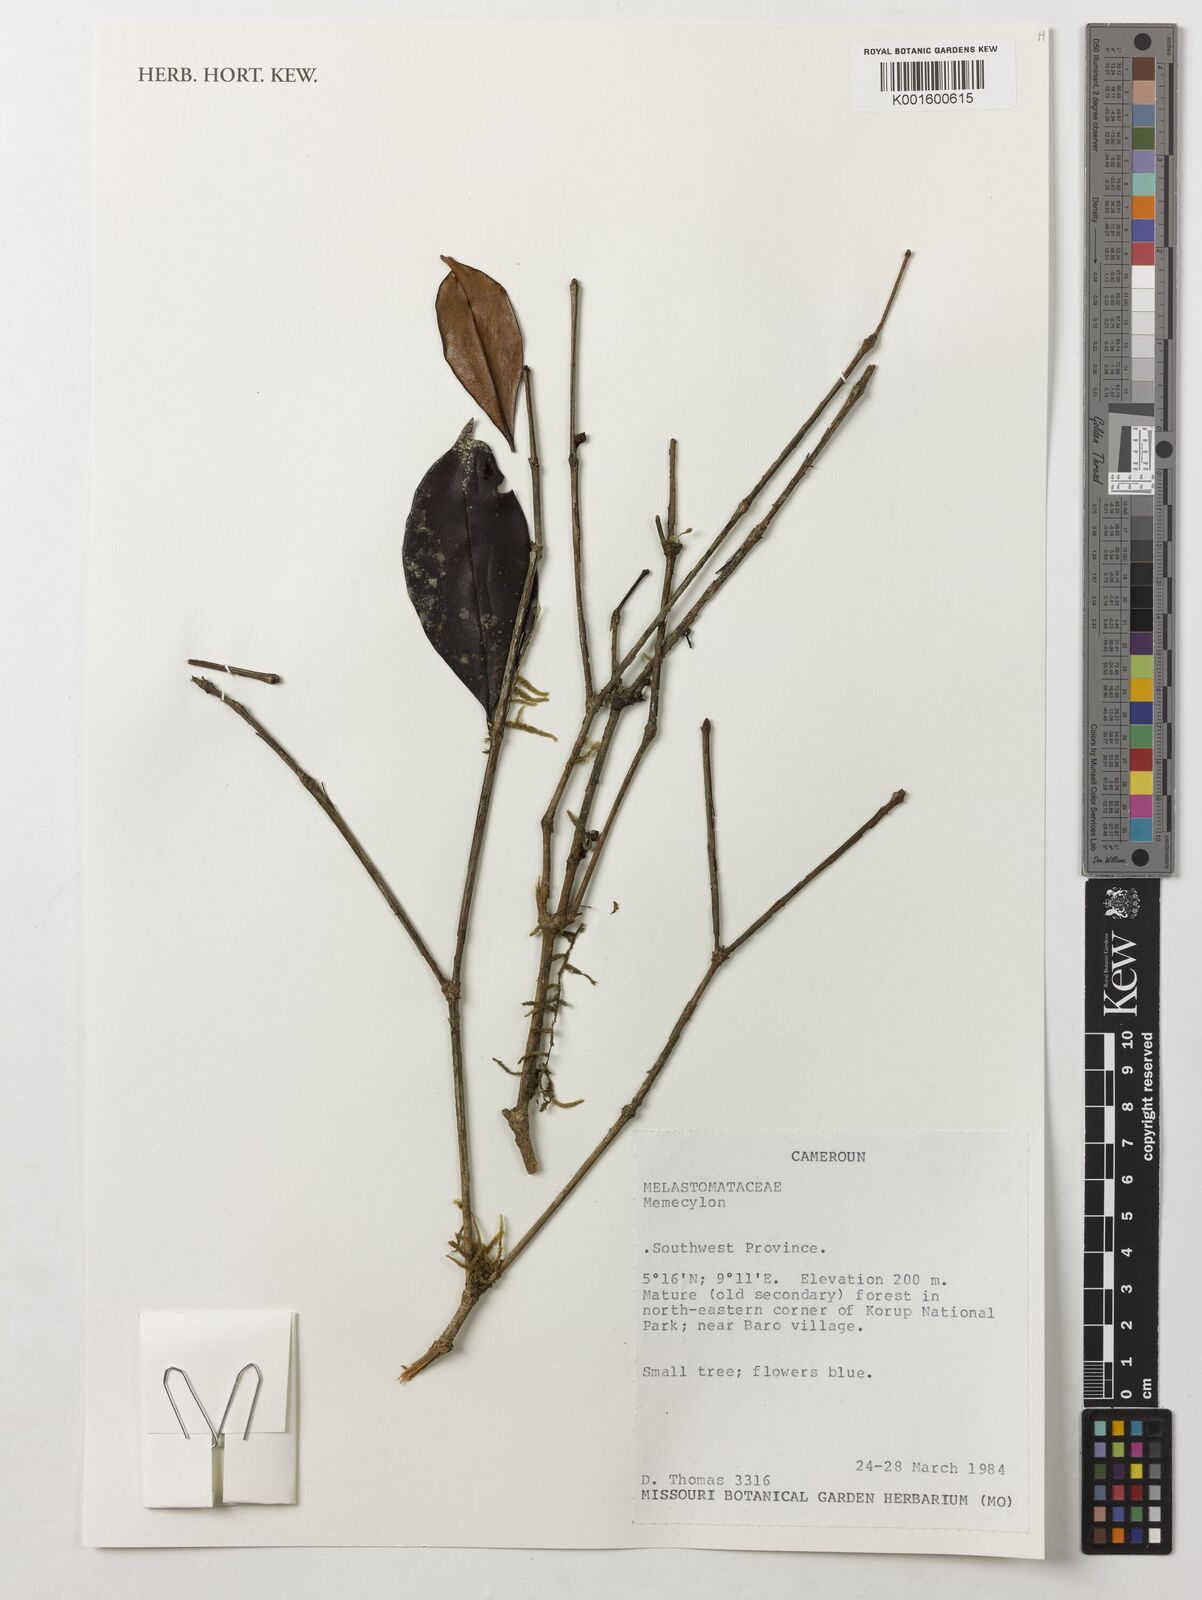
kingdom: Plantae
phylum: Tracheophyta
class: Magnoliopsida
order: Myrtales
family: Melastomataceae
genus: Memecylon
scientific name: Memecylon
